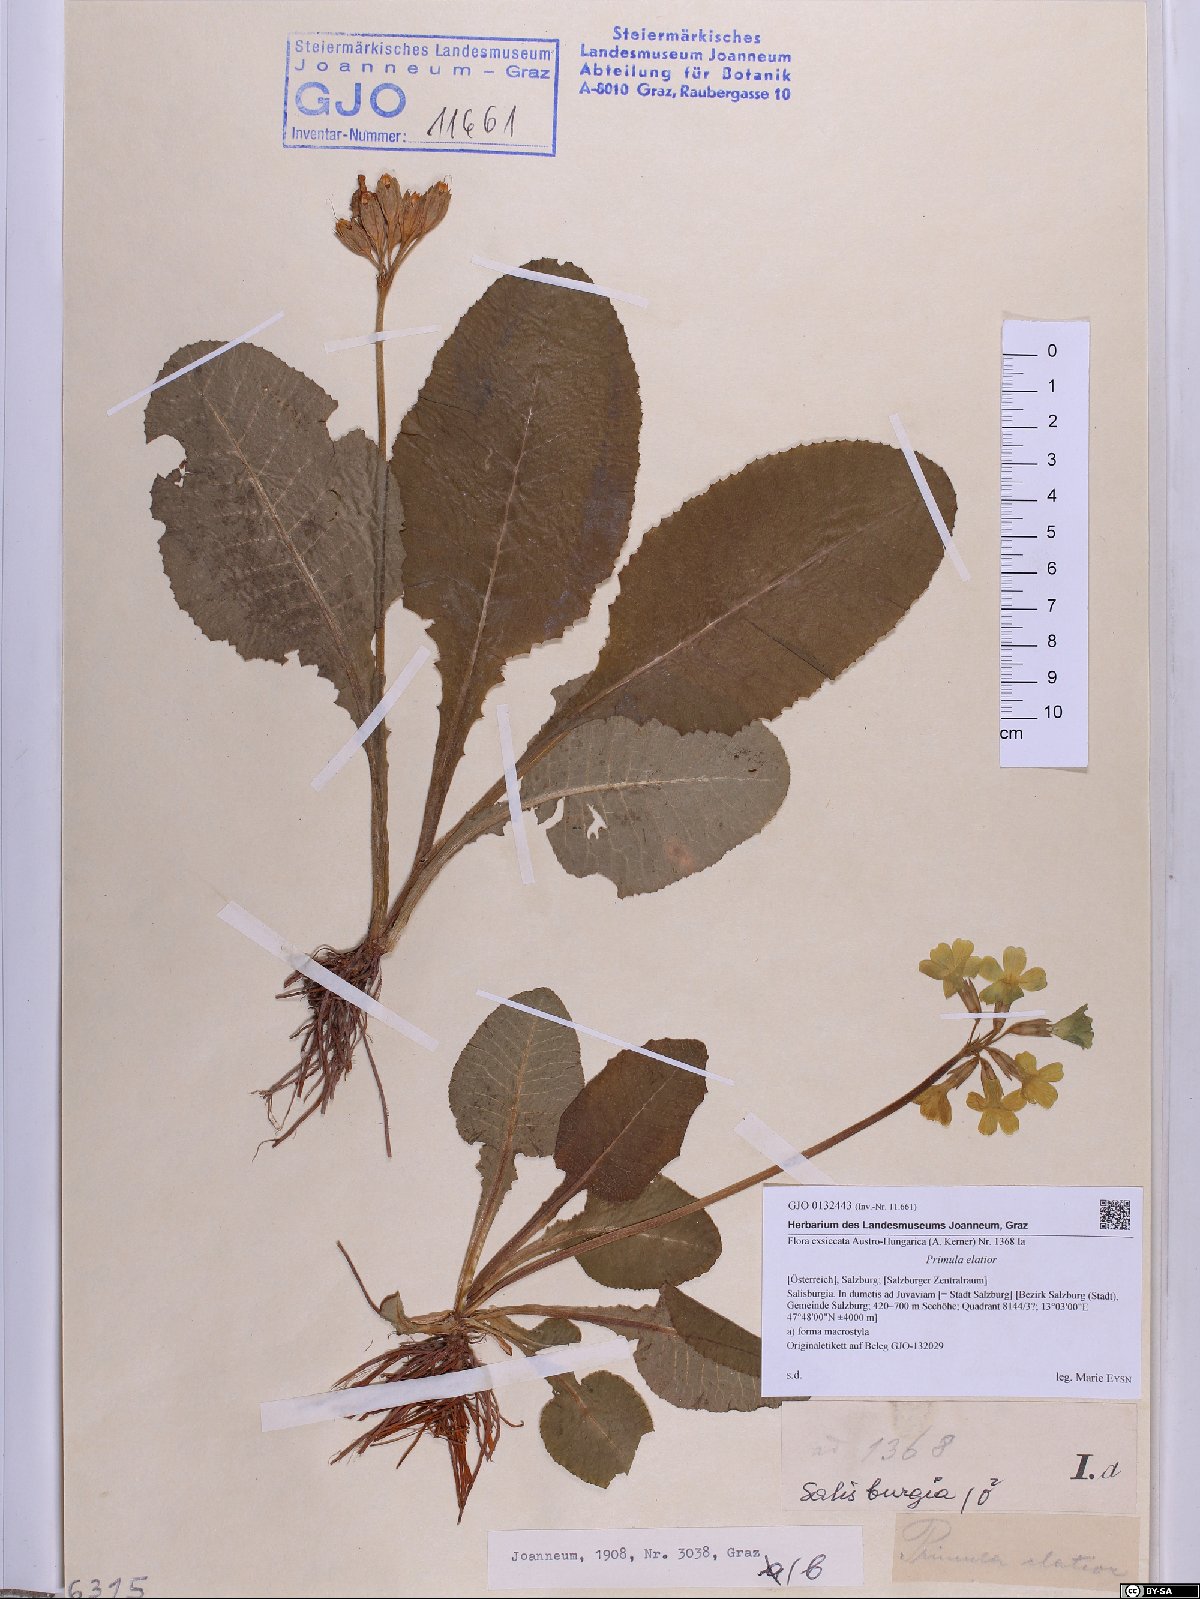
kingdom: Plantae
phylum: Tracheophyta
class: Magnoliopsida
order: Ericales
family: Primulaceae
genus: Primula
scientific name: Primula elatior
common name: Oxlip
